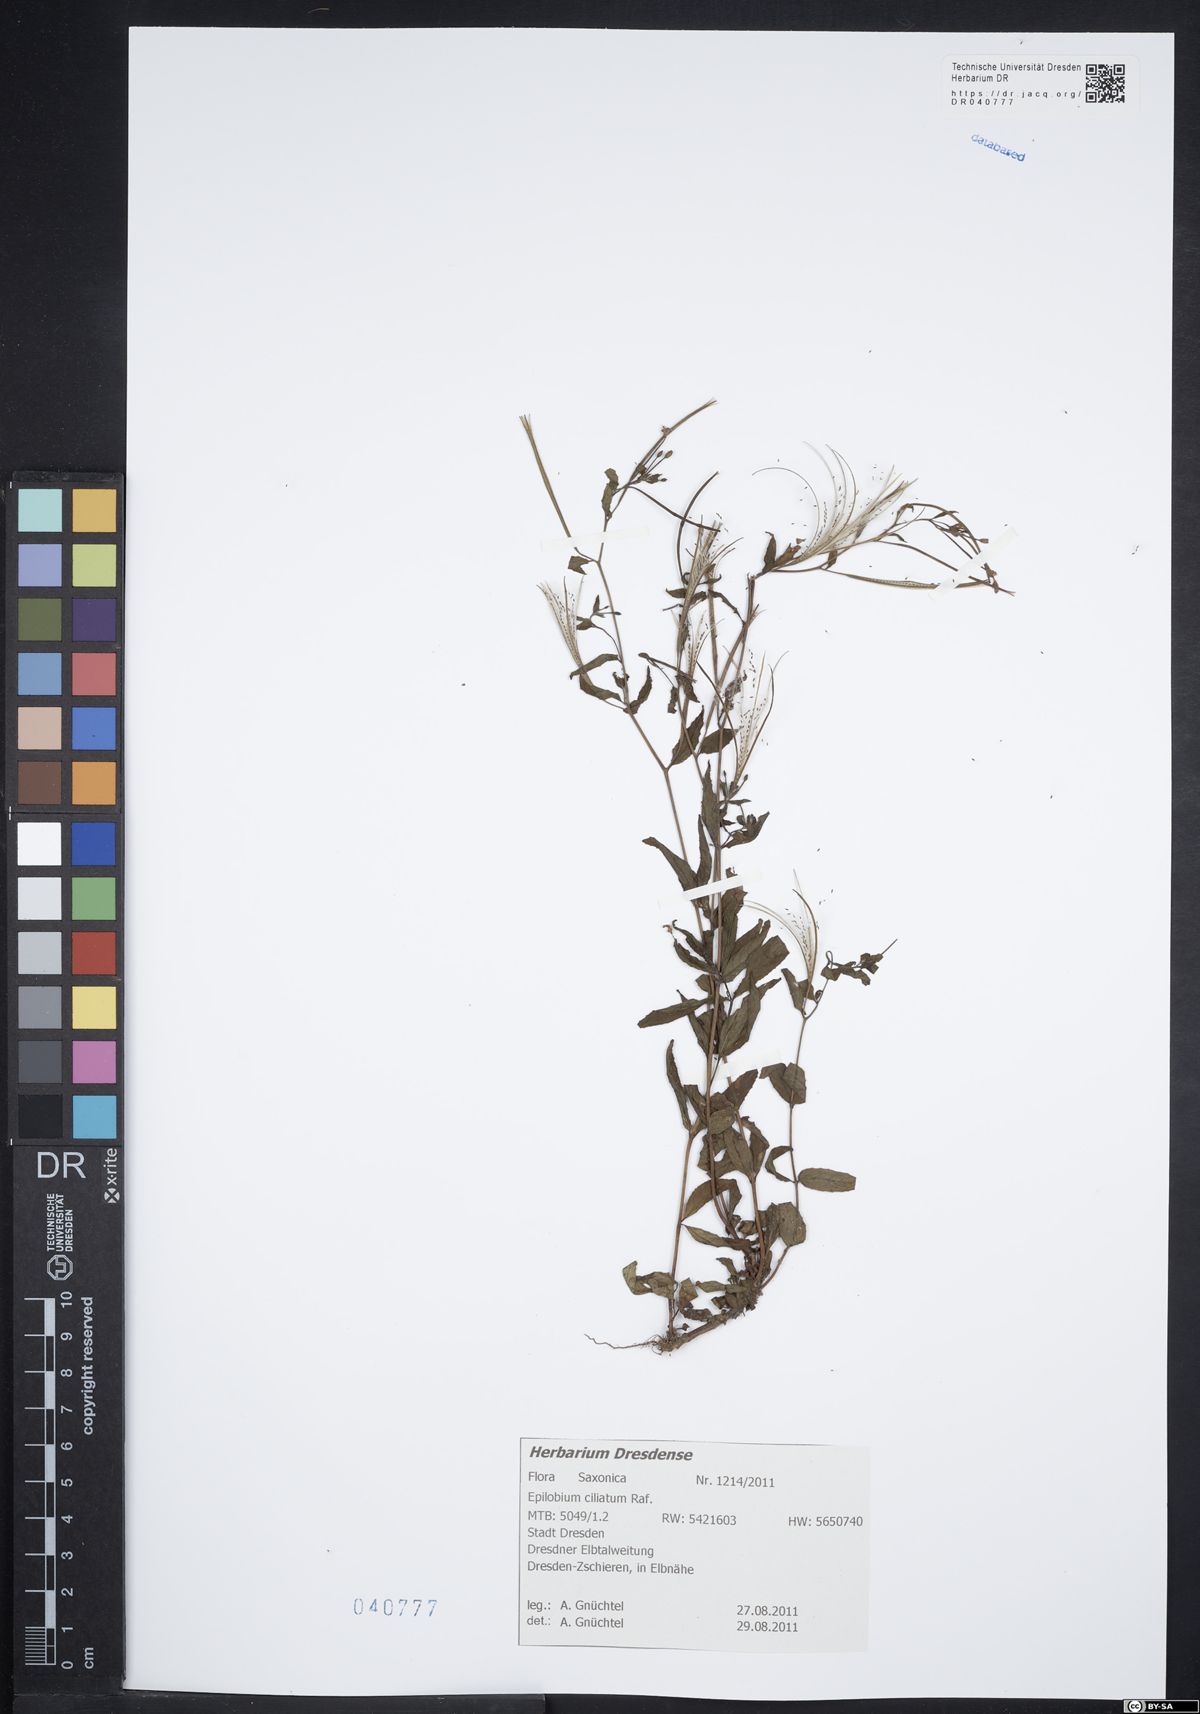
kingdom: Plantae
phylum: Tracheophyta
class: Magnoliopsida
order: Myrtales
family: Onagraceae
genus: Epilobium
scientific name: Epilobium ciliatum
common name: American willowherb
